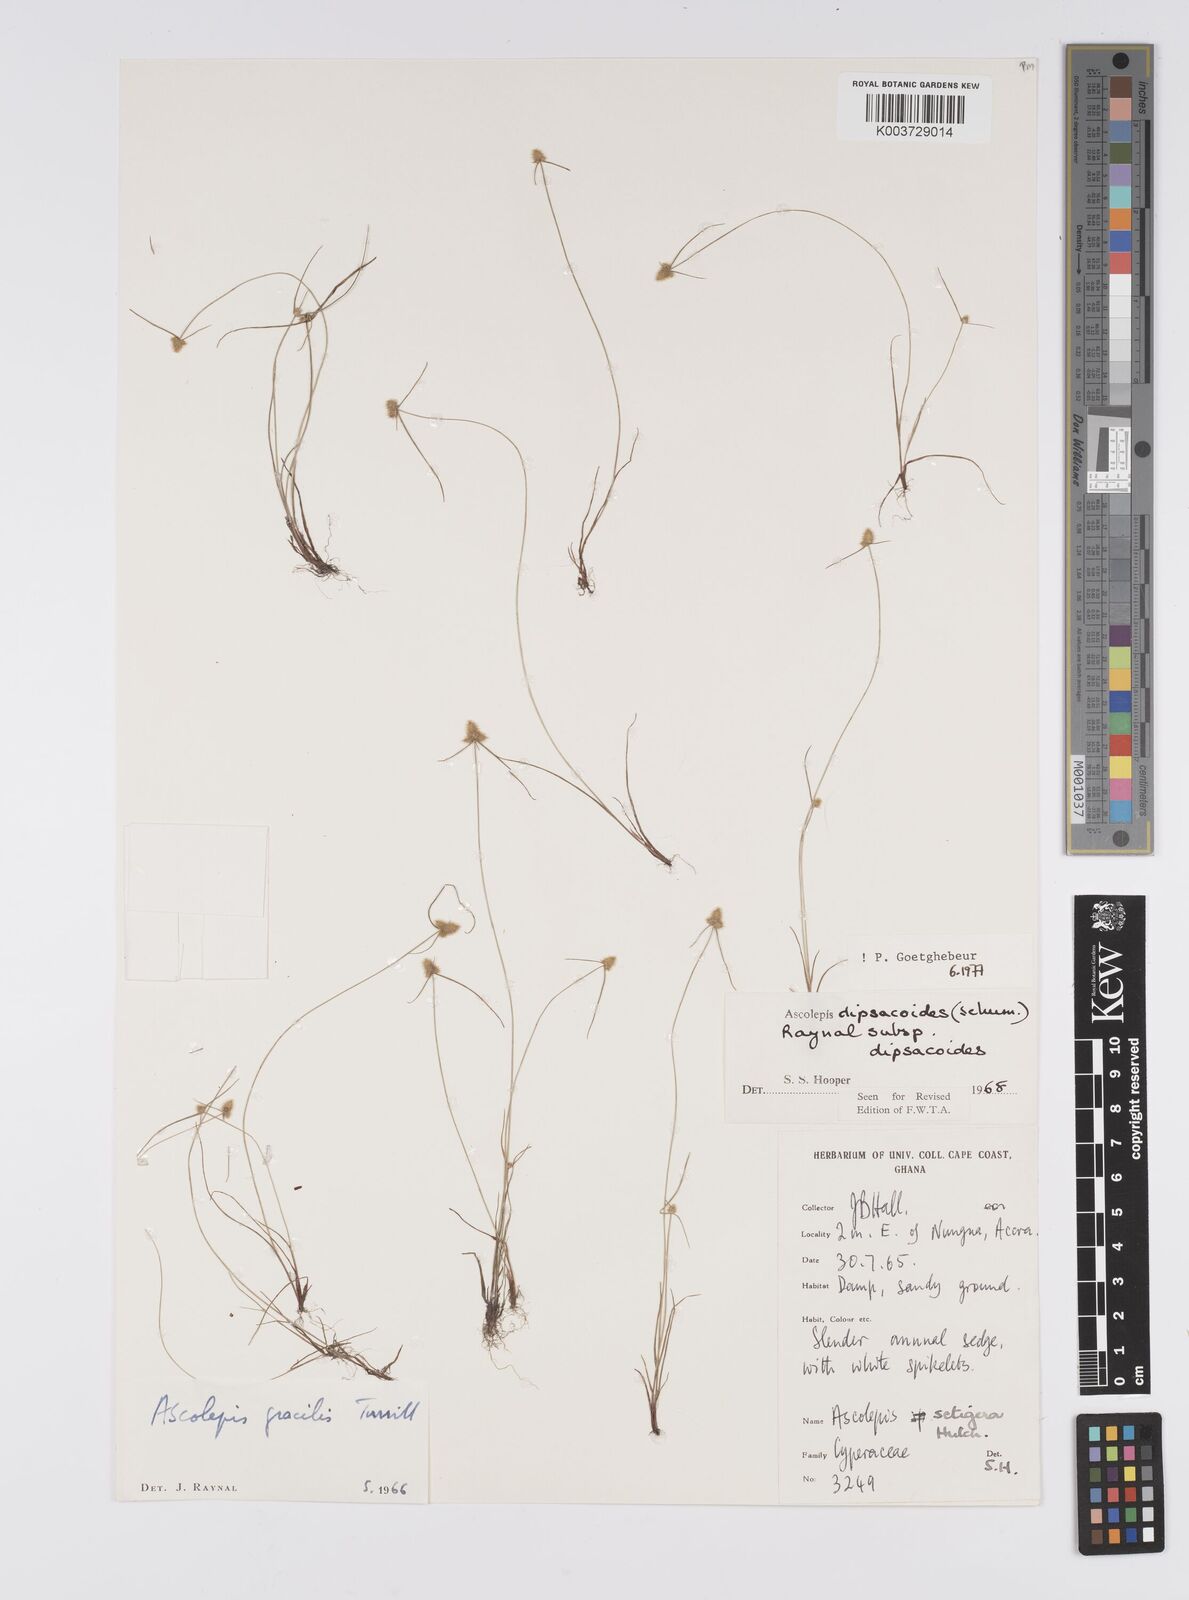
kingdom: Plantae
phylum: Tracheophyta
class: Liliopsida
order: Poales
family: Cyperaceae
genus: Cyperus
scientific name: Cyperus dipsacoides
